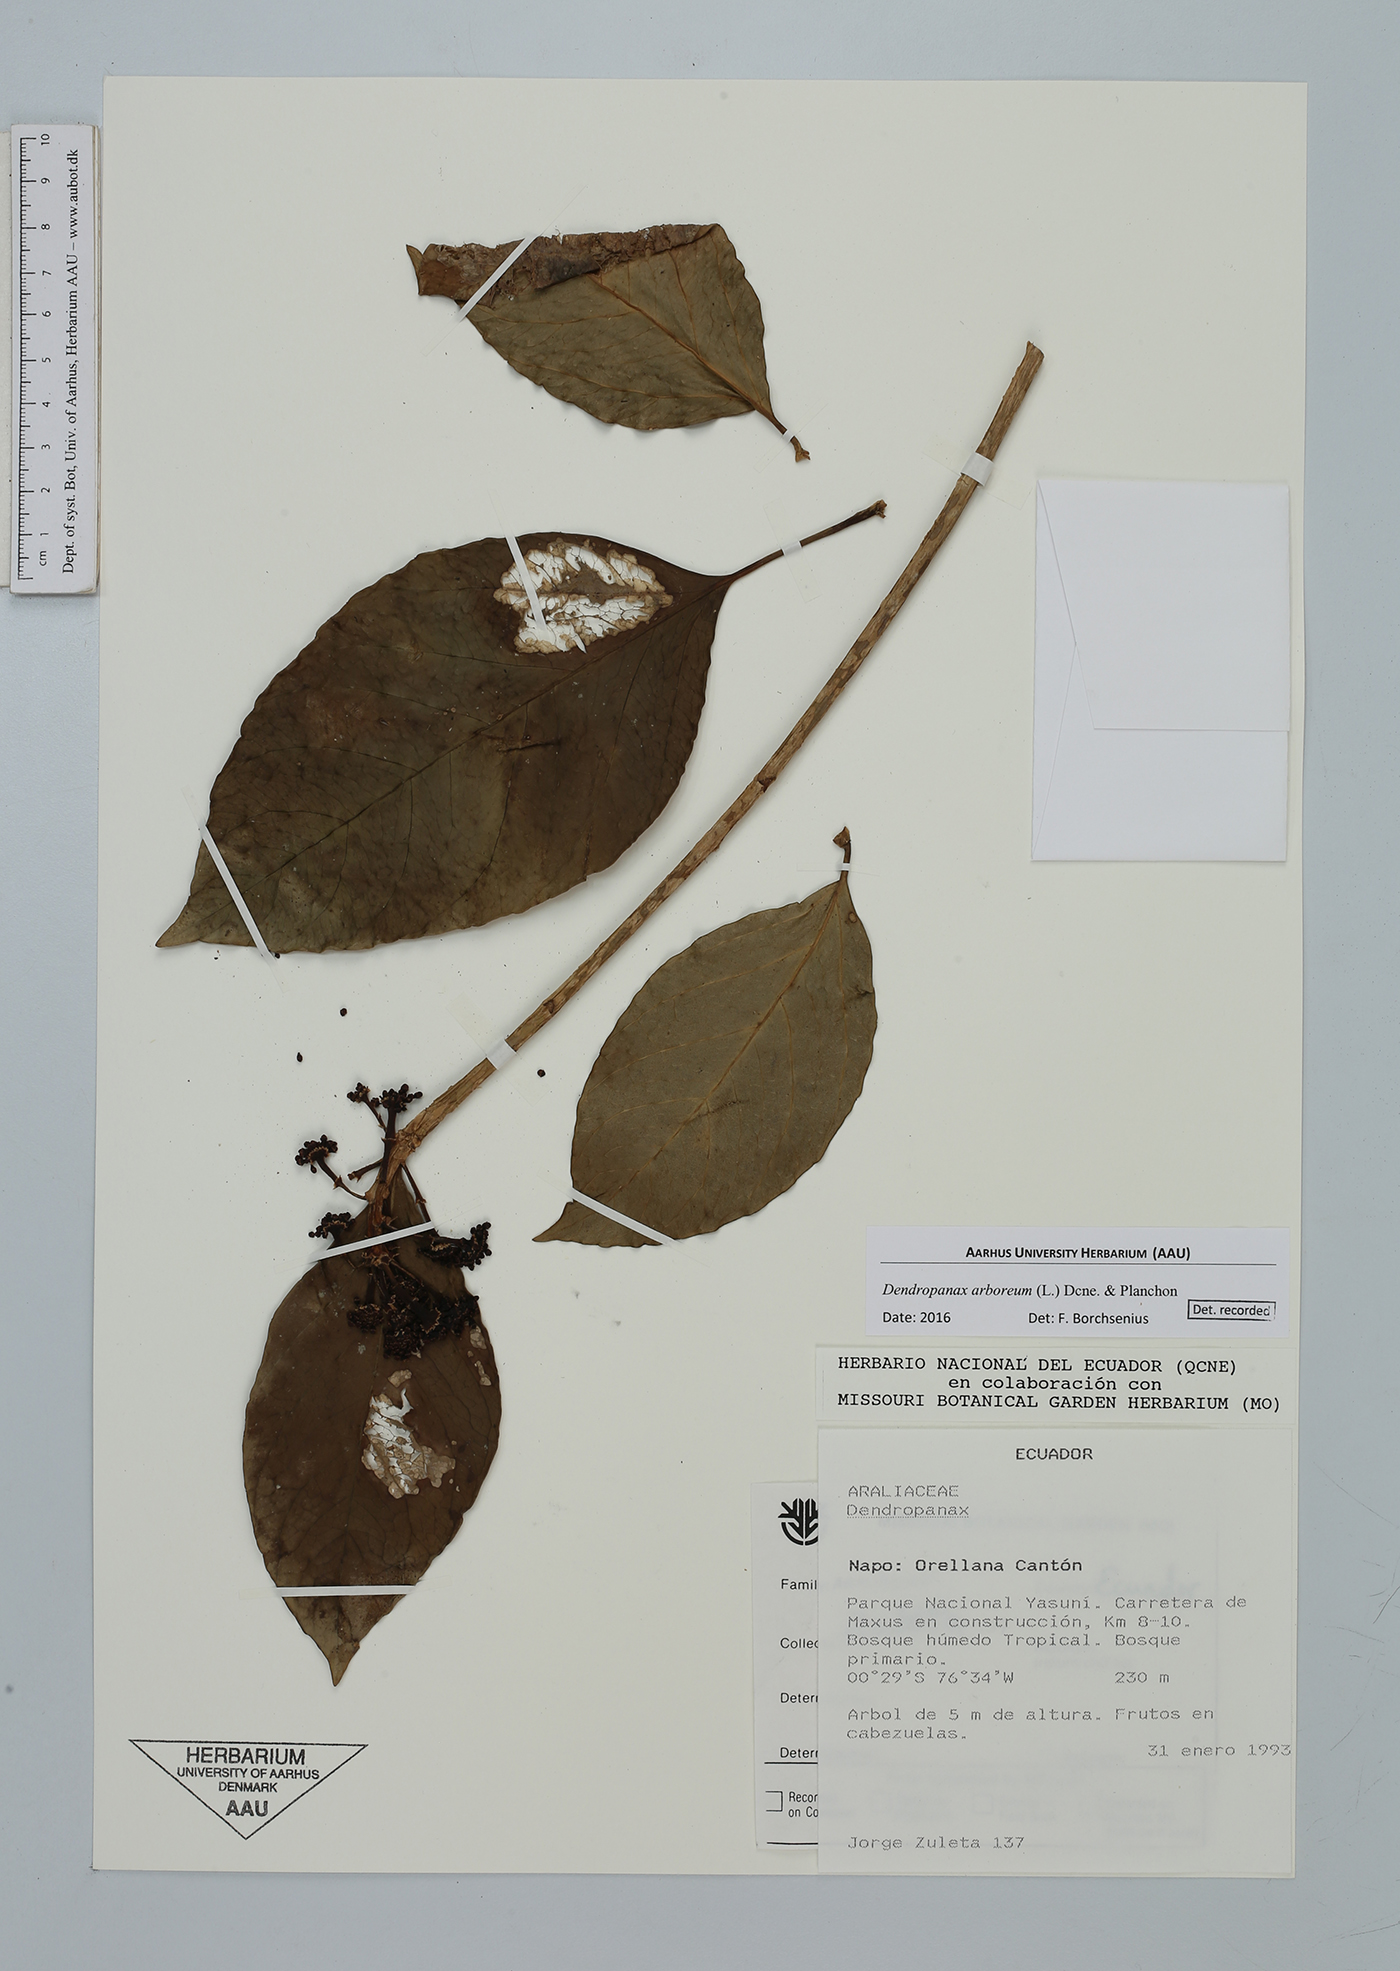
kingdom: Plantae
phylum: Tracheophyta
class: Magnoliopsida
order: Apiales
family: Araliaceae
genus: Dendropanax
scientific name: Dendropanax arboreus
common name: Potato-wood
